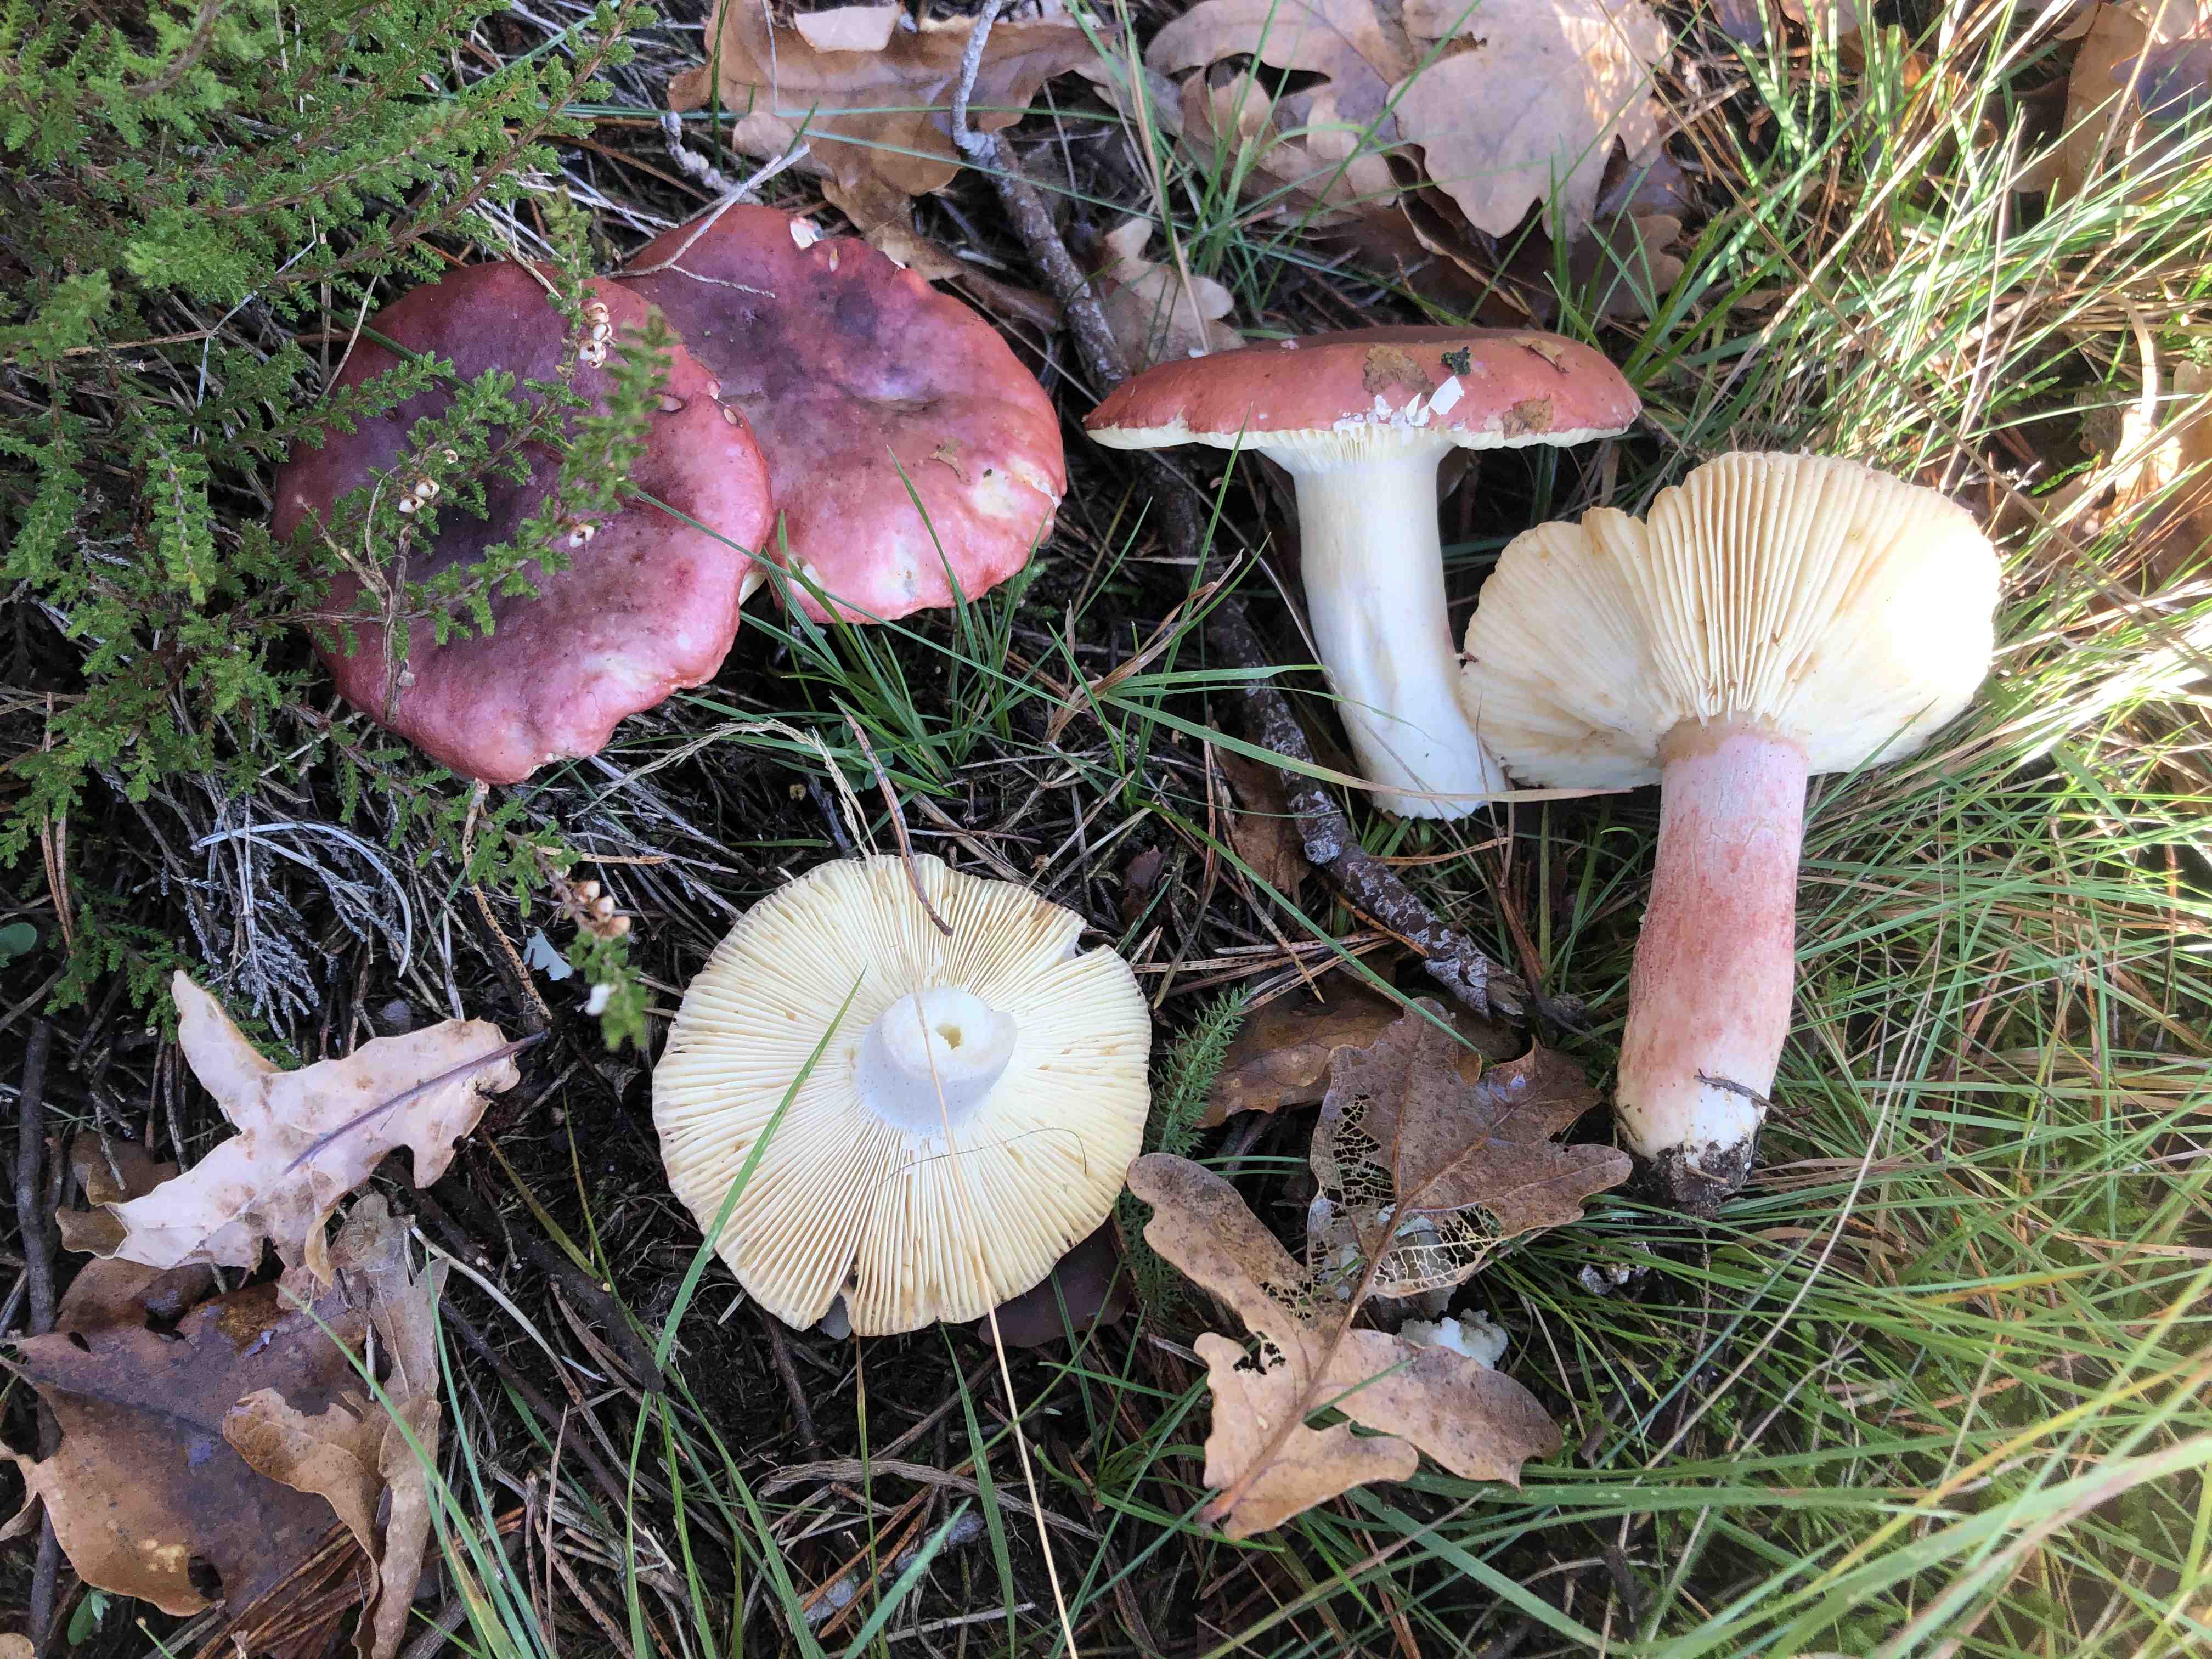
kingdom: Fungi
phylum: Basidiomycota
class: Agaricomycetes
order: Russulales
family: Russulaceae
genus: Russula
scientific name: Russula sanguinea
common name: blodrød skørhat
